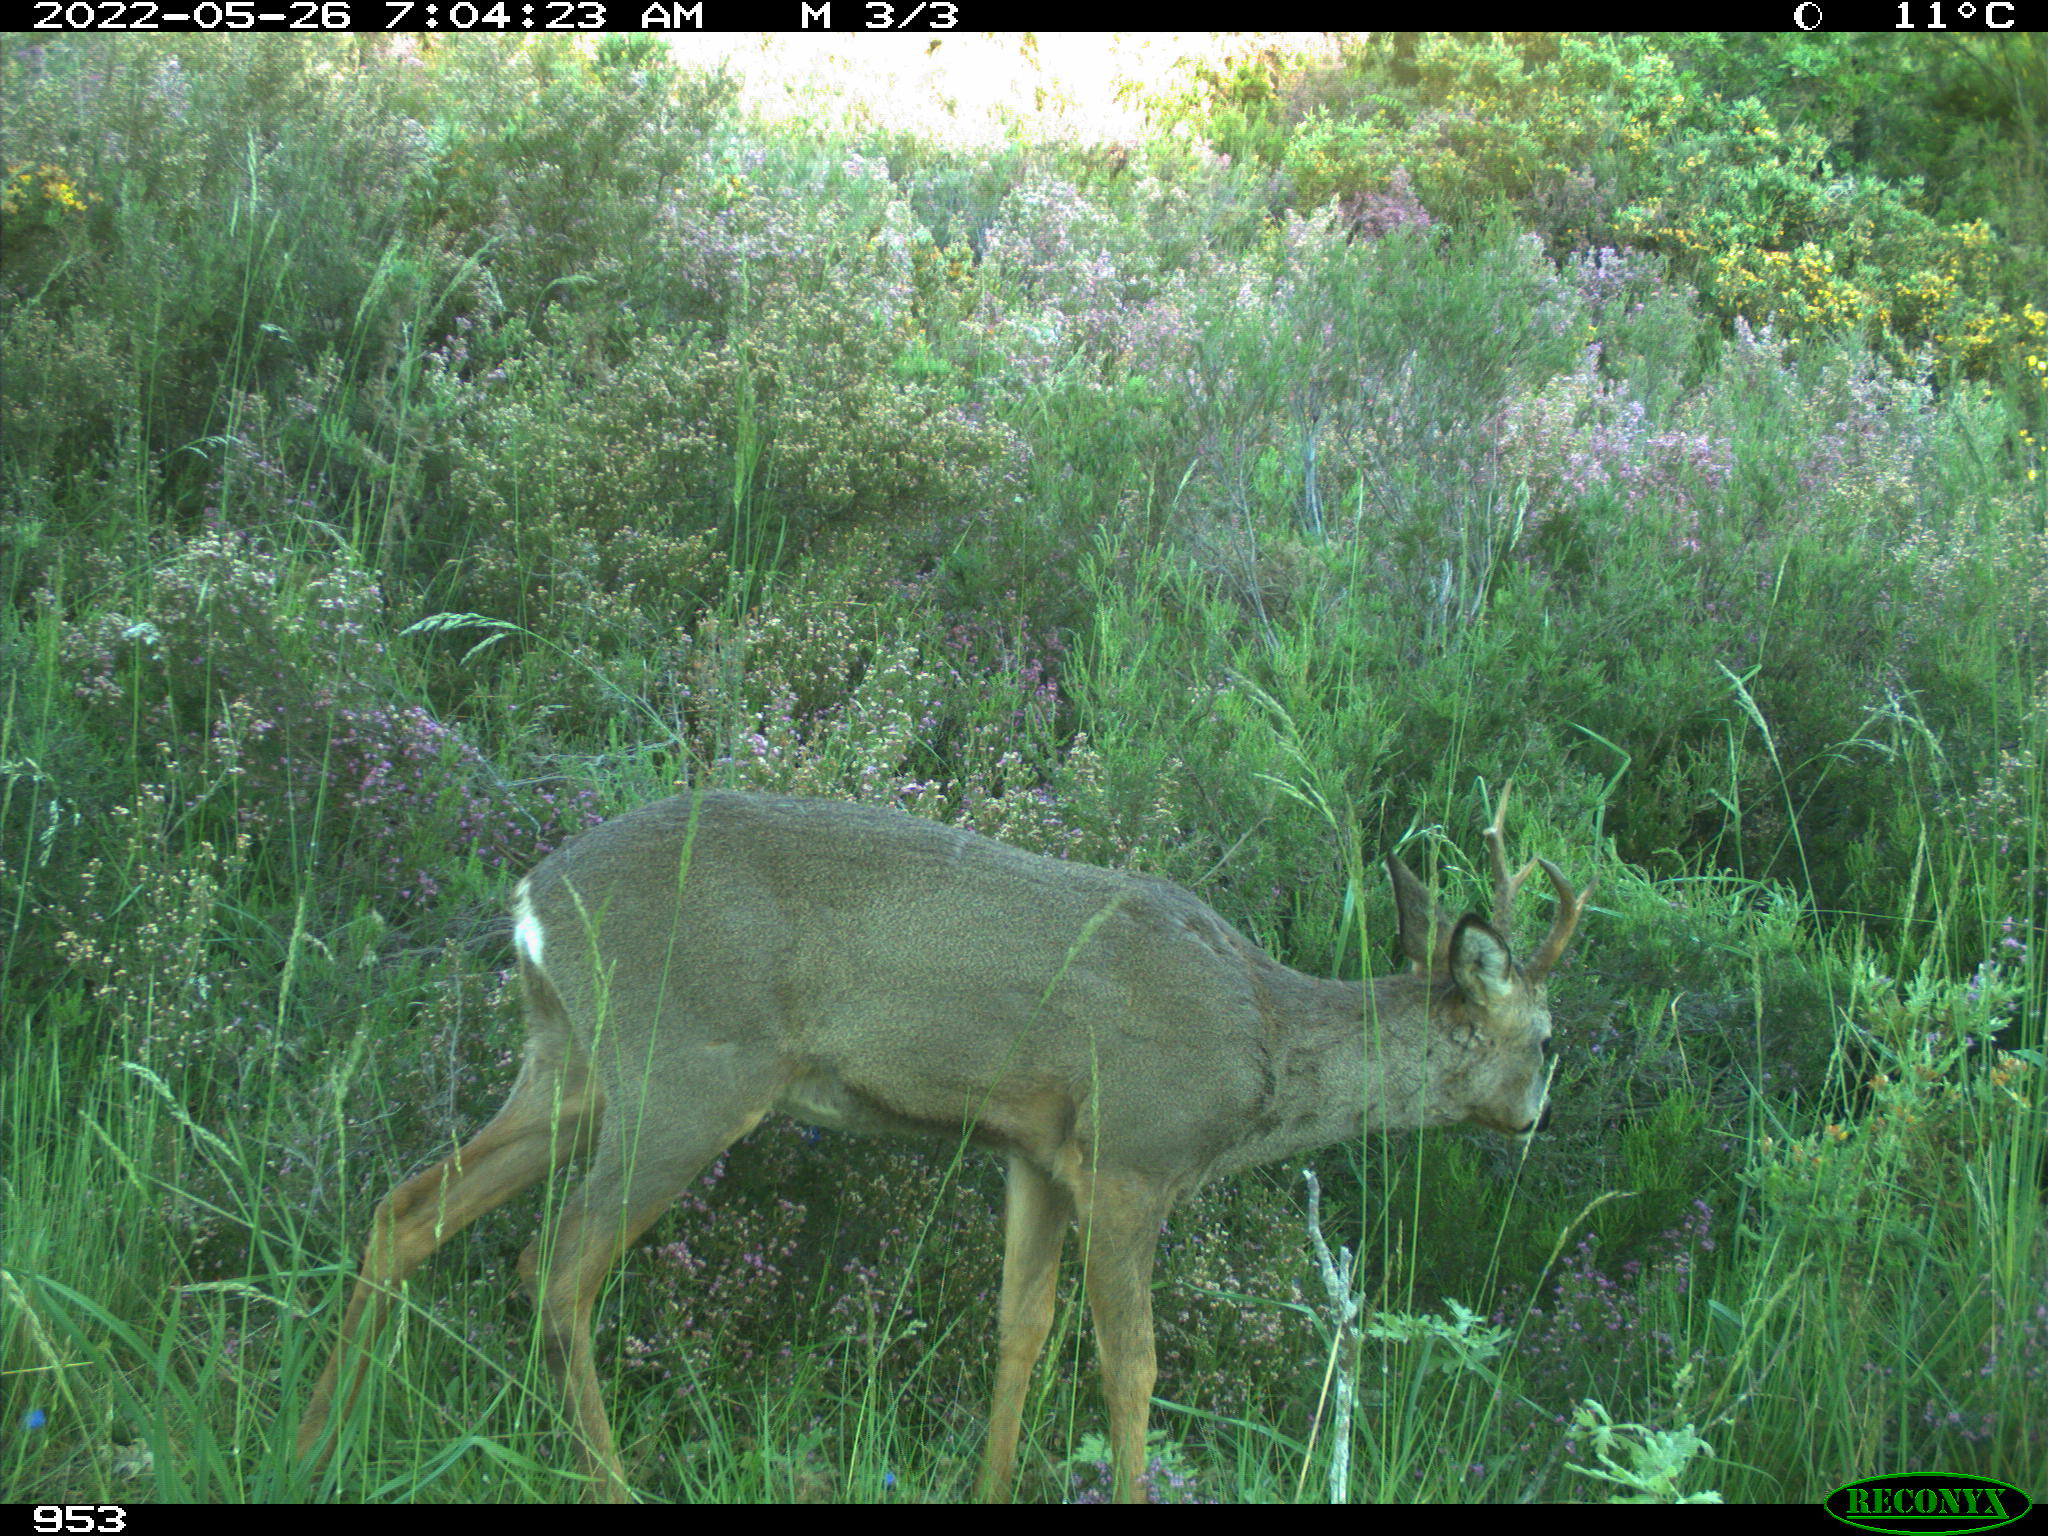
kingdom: Animalia
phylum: Chordata
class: Mammalia
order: Artiodactyla
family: Cervidae
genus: Capreolus
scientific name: Capreolus capreolus
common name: Western roe deer
